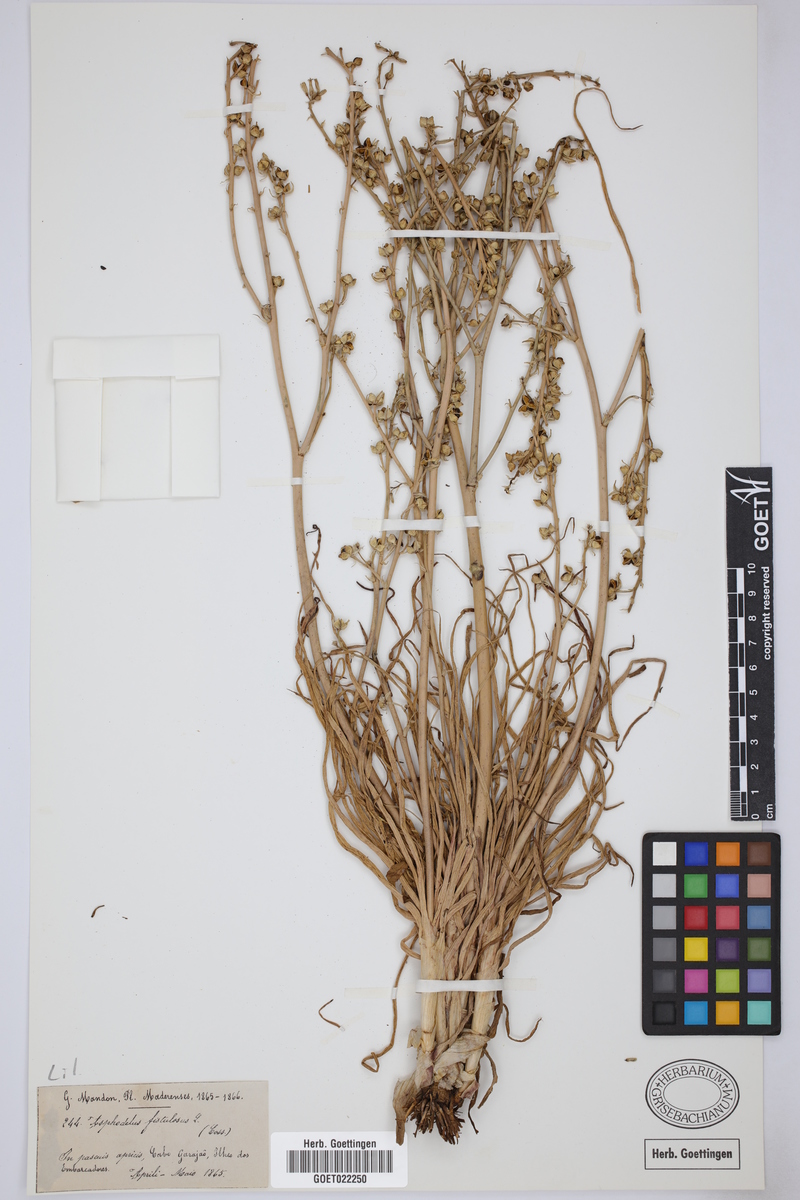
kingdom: Plantae
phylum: Tracheophyta
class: Liliopsida
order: Asparagales
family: Asphodelaceae
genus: Asphodelus
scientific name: Asphodelus fistulosus
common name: Onionweed
